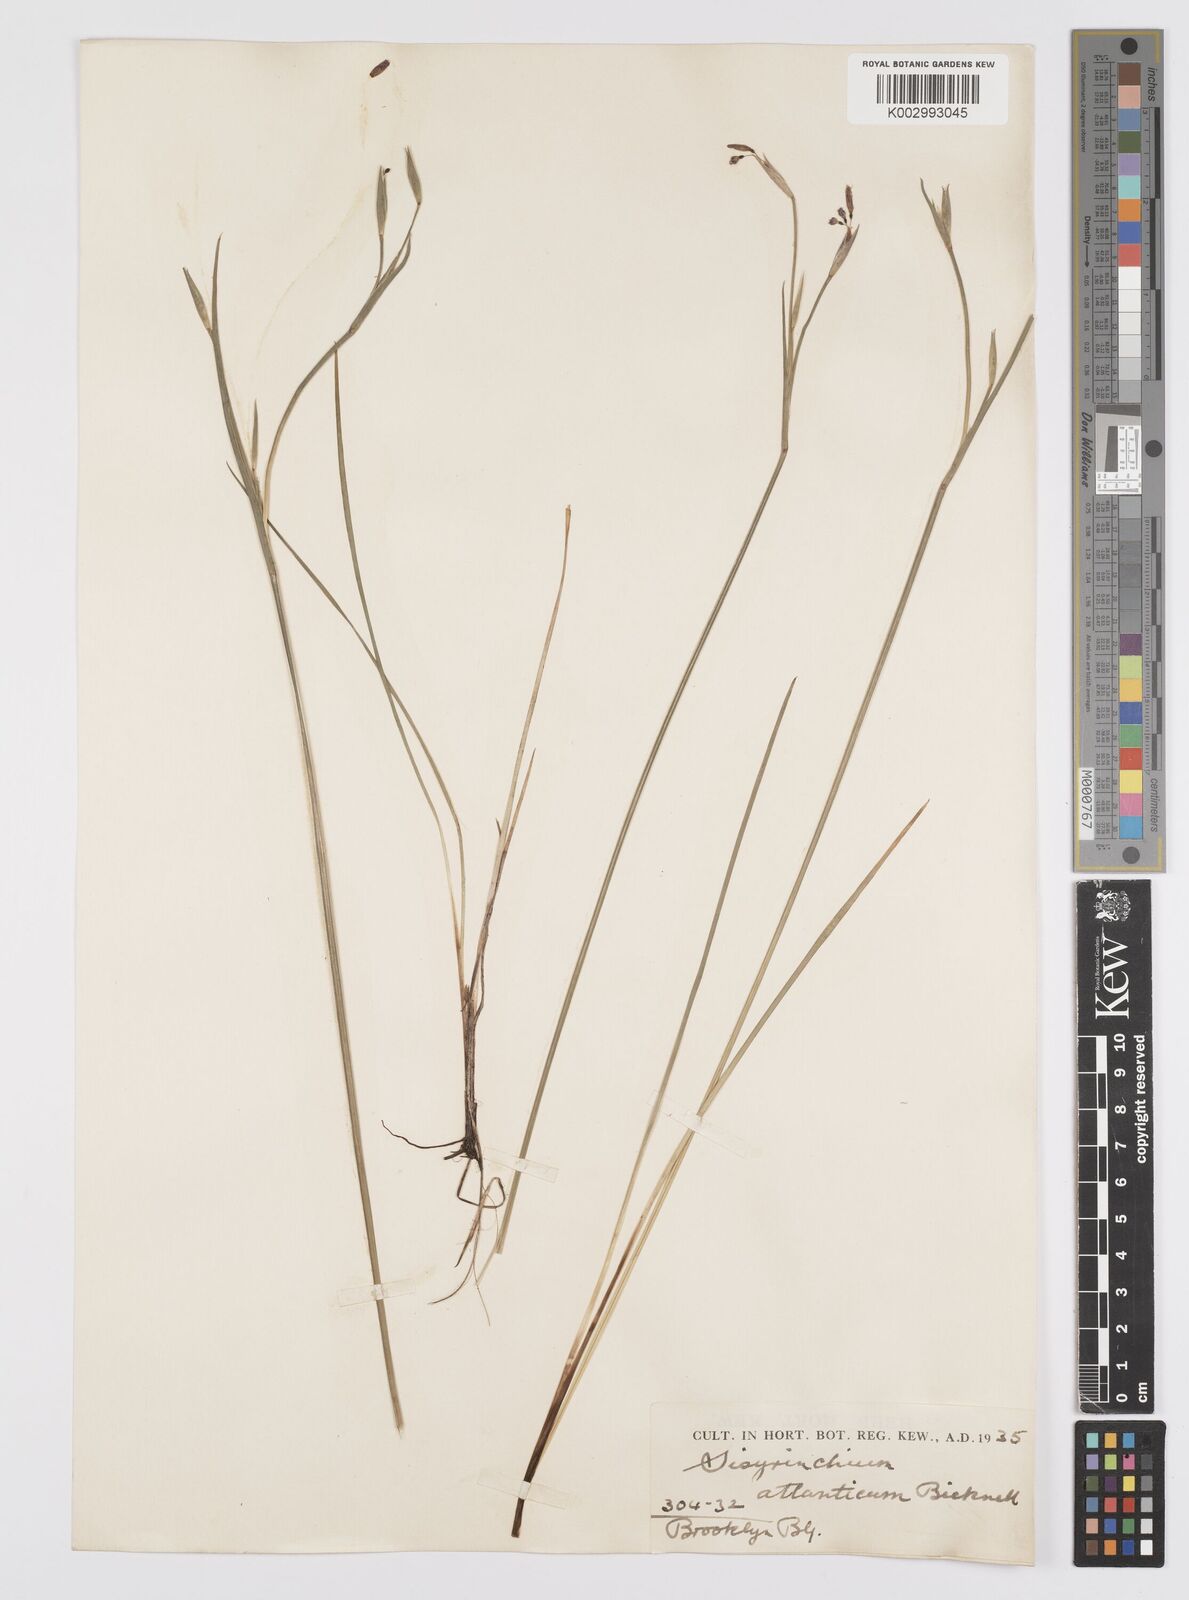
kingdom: Plantae
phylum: Tracheophyta
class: Liliopsida
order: Asparagales
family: Iridaceae
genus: Sisyrinchium
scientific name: Sisyrinchium atlanticum
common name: Eastern blue-eyed-grass
